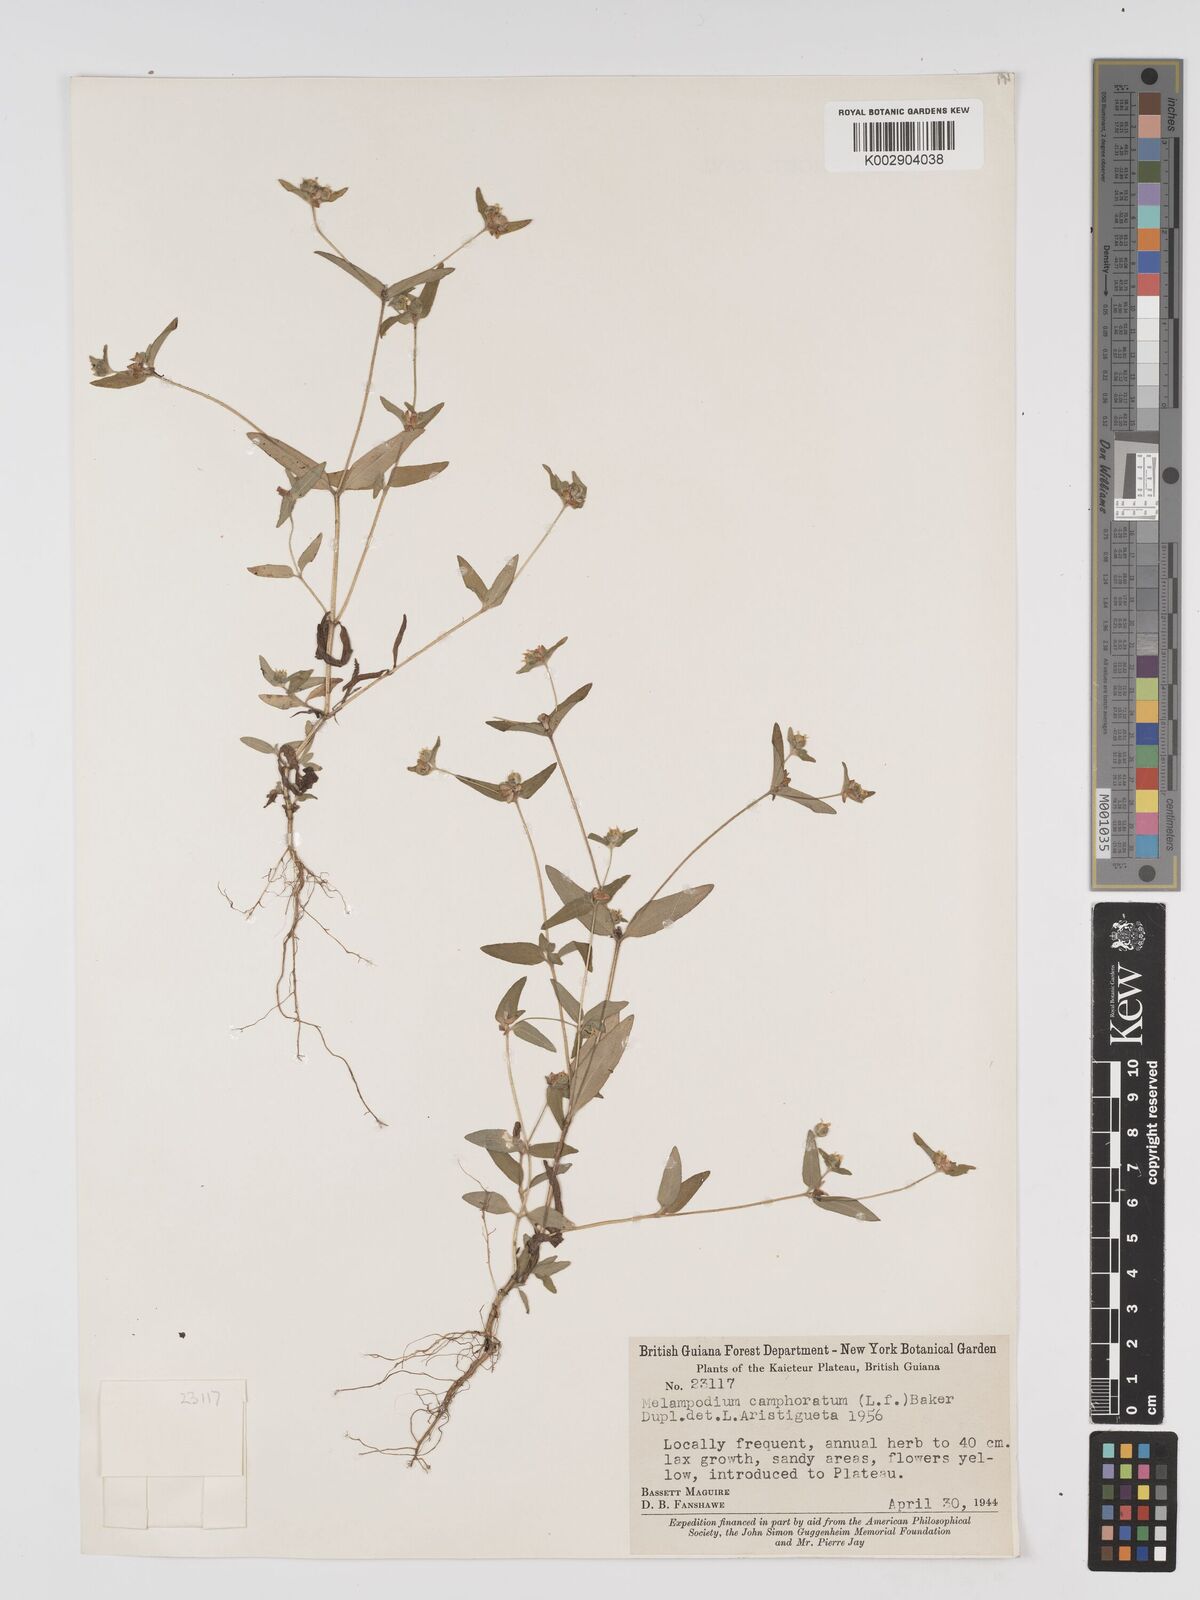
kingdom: Plantae
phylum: Tracheophyta
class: Magnoliopsida
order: Asterales
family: Asteraceae
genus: Unxia
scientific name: Unxia camphorata
